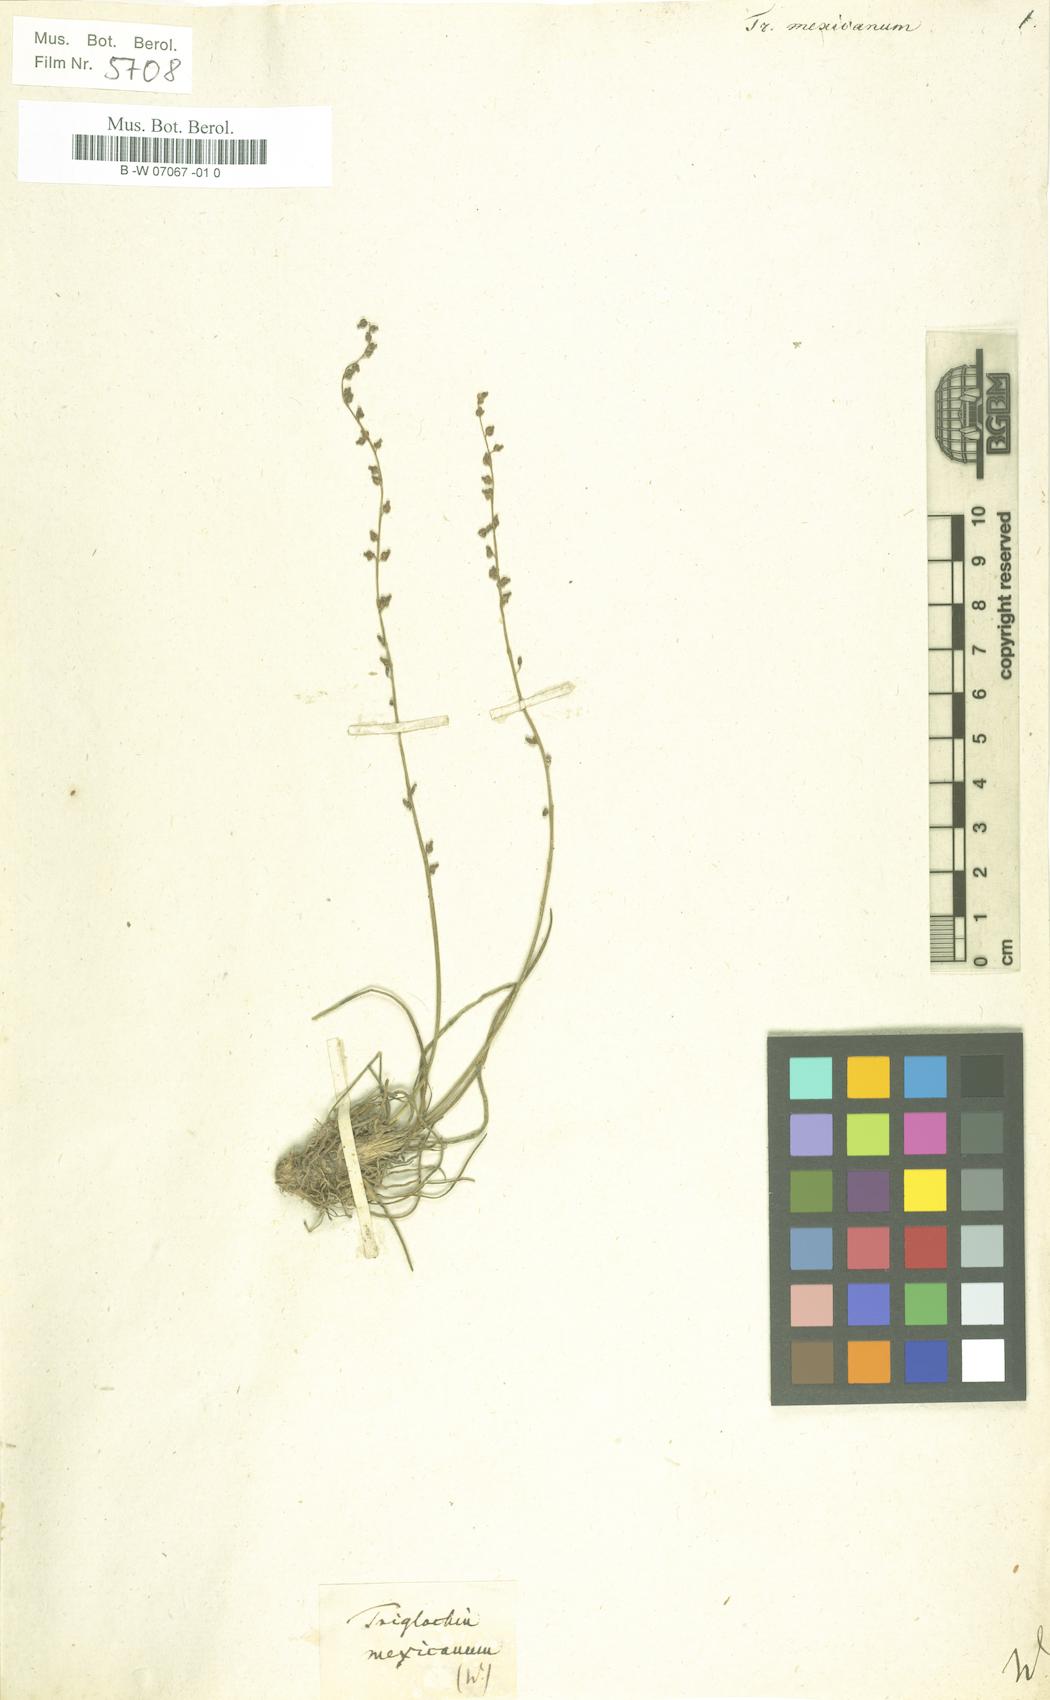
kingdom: Plantae
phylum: Tracheophyta
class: Liliopsida
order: Alismatales
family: Juncaginaceae
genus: Triglochin
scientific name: Triglochin mexicana
